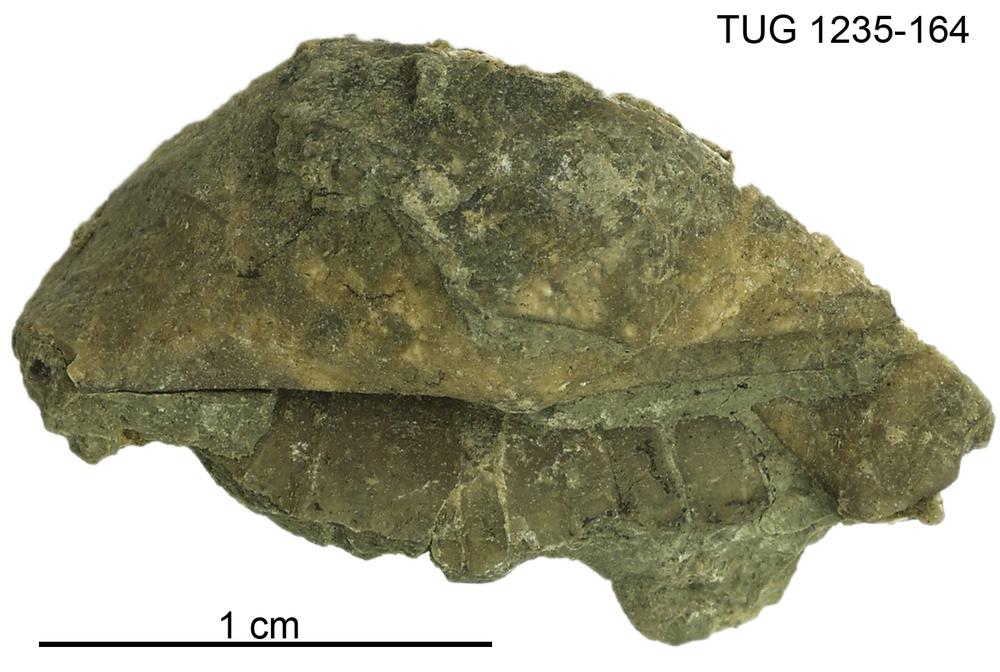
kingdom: Animalia
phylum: Brachiopoda
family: Oldhaminidae
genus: Eoplectodonta
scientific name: Eoplectodonta
